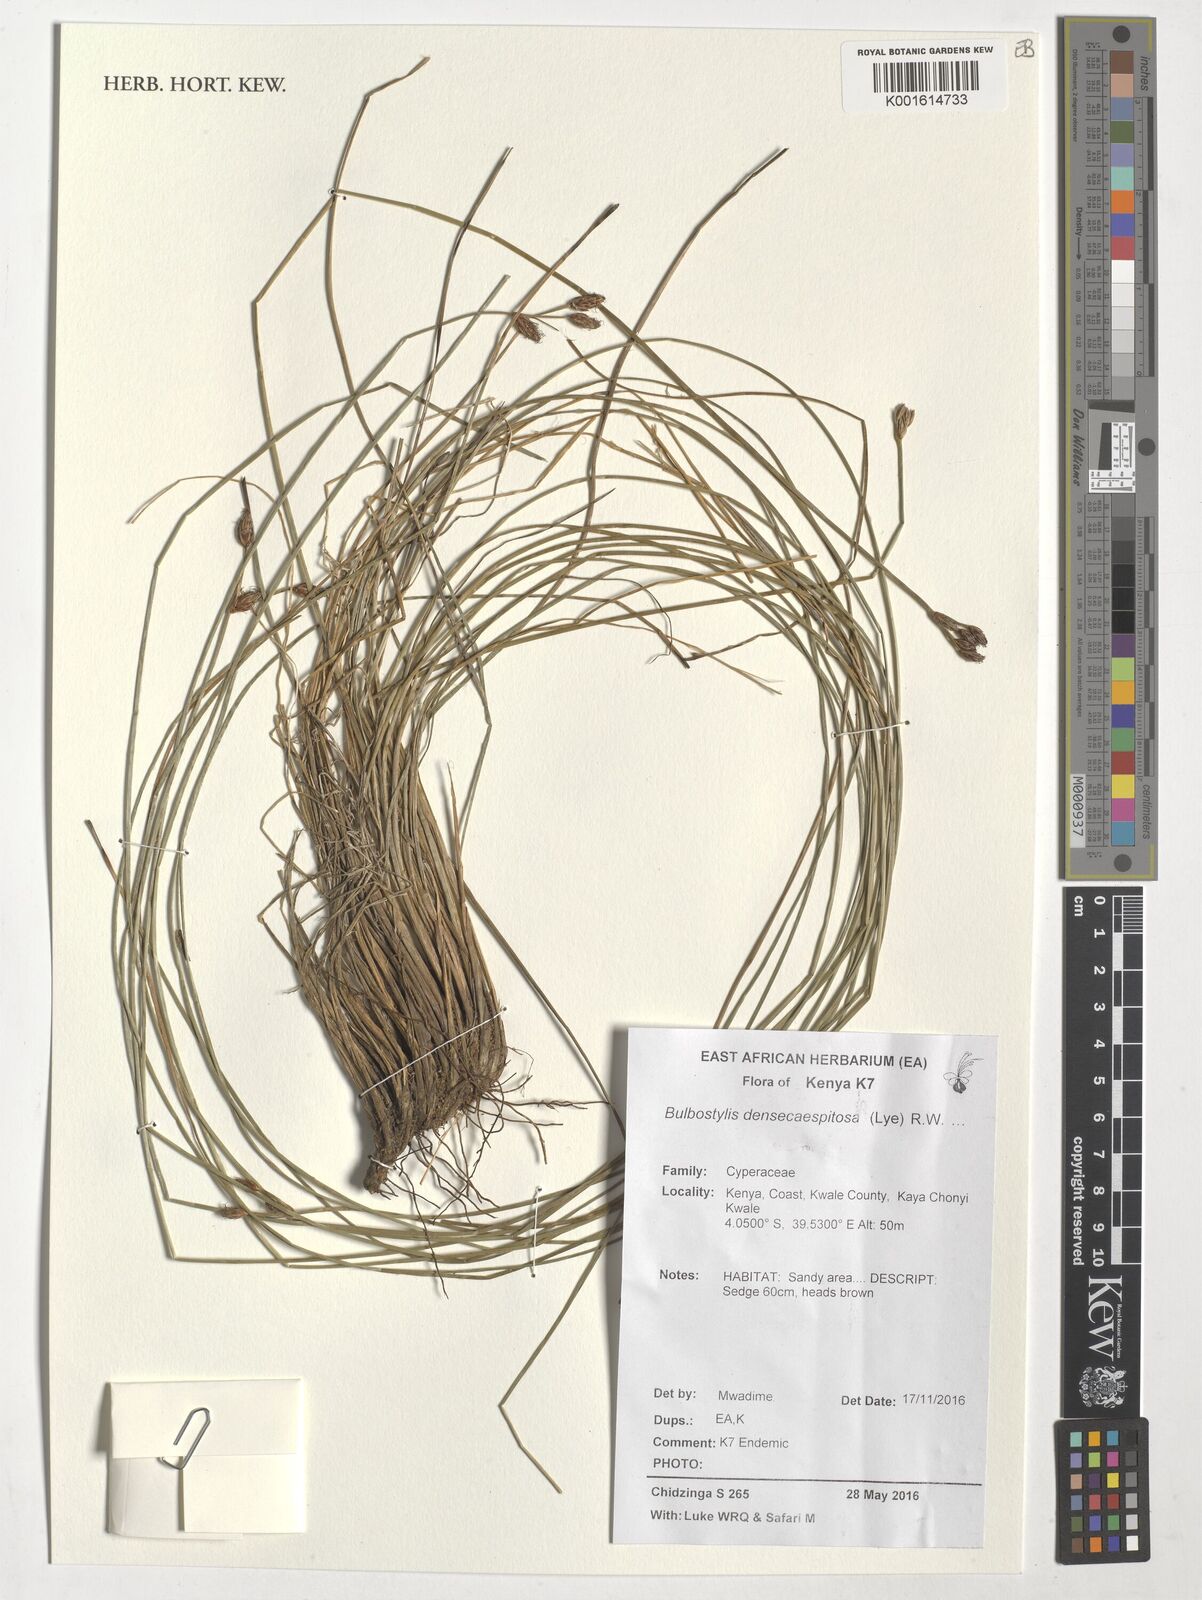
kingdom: Plantae
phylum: Tracheophyta
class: Liliopsida
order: Poales
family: Cyperaceae
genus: Bulbostylis
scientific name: Bulbostylis densicaespitosa
